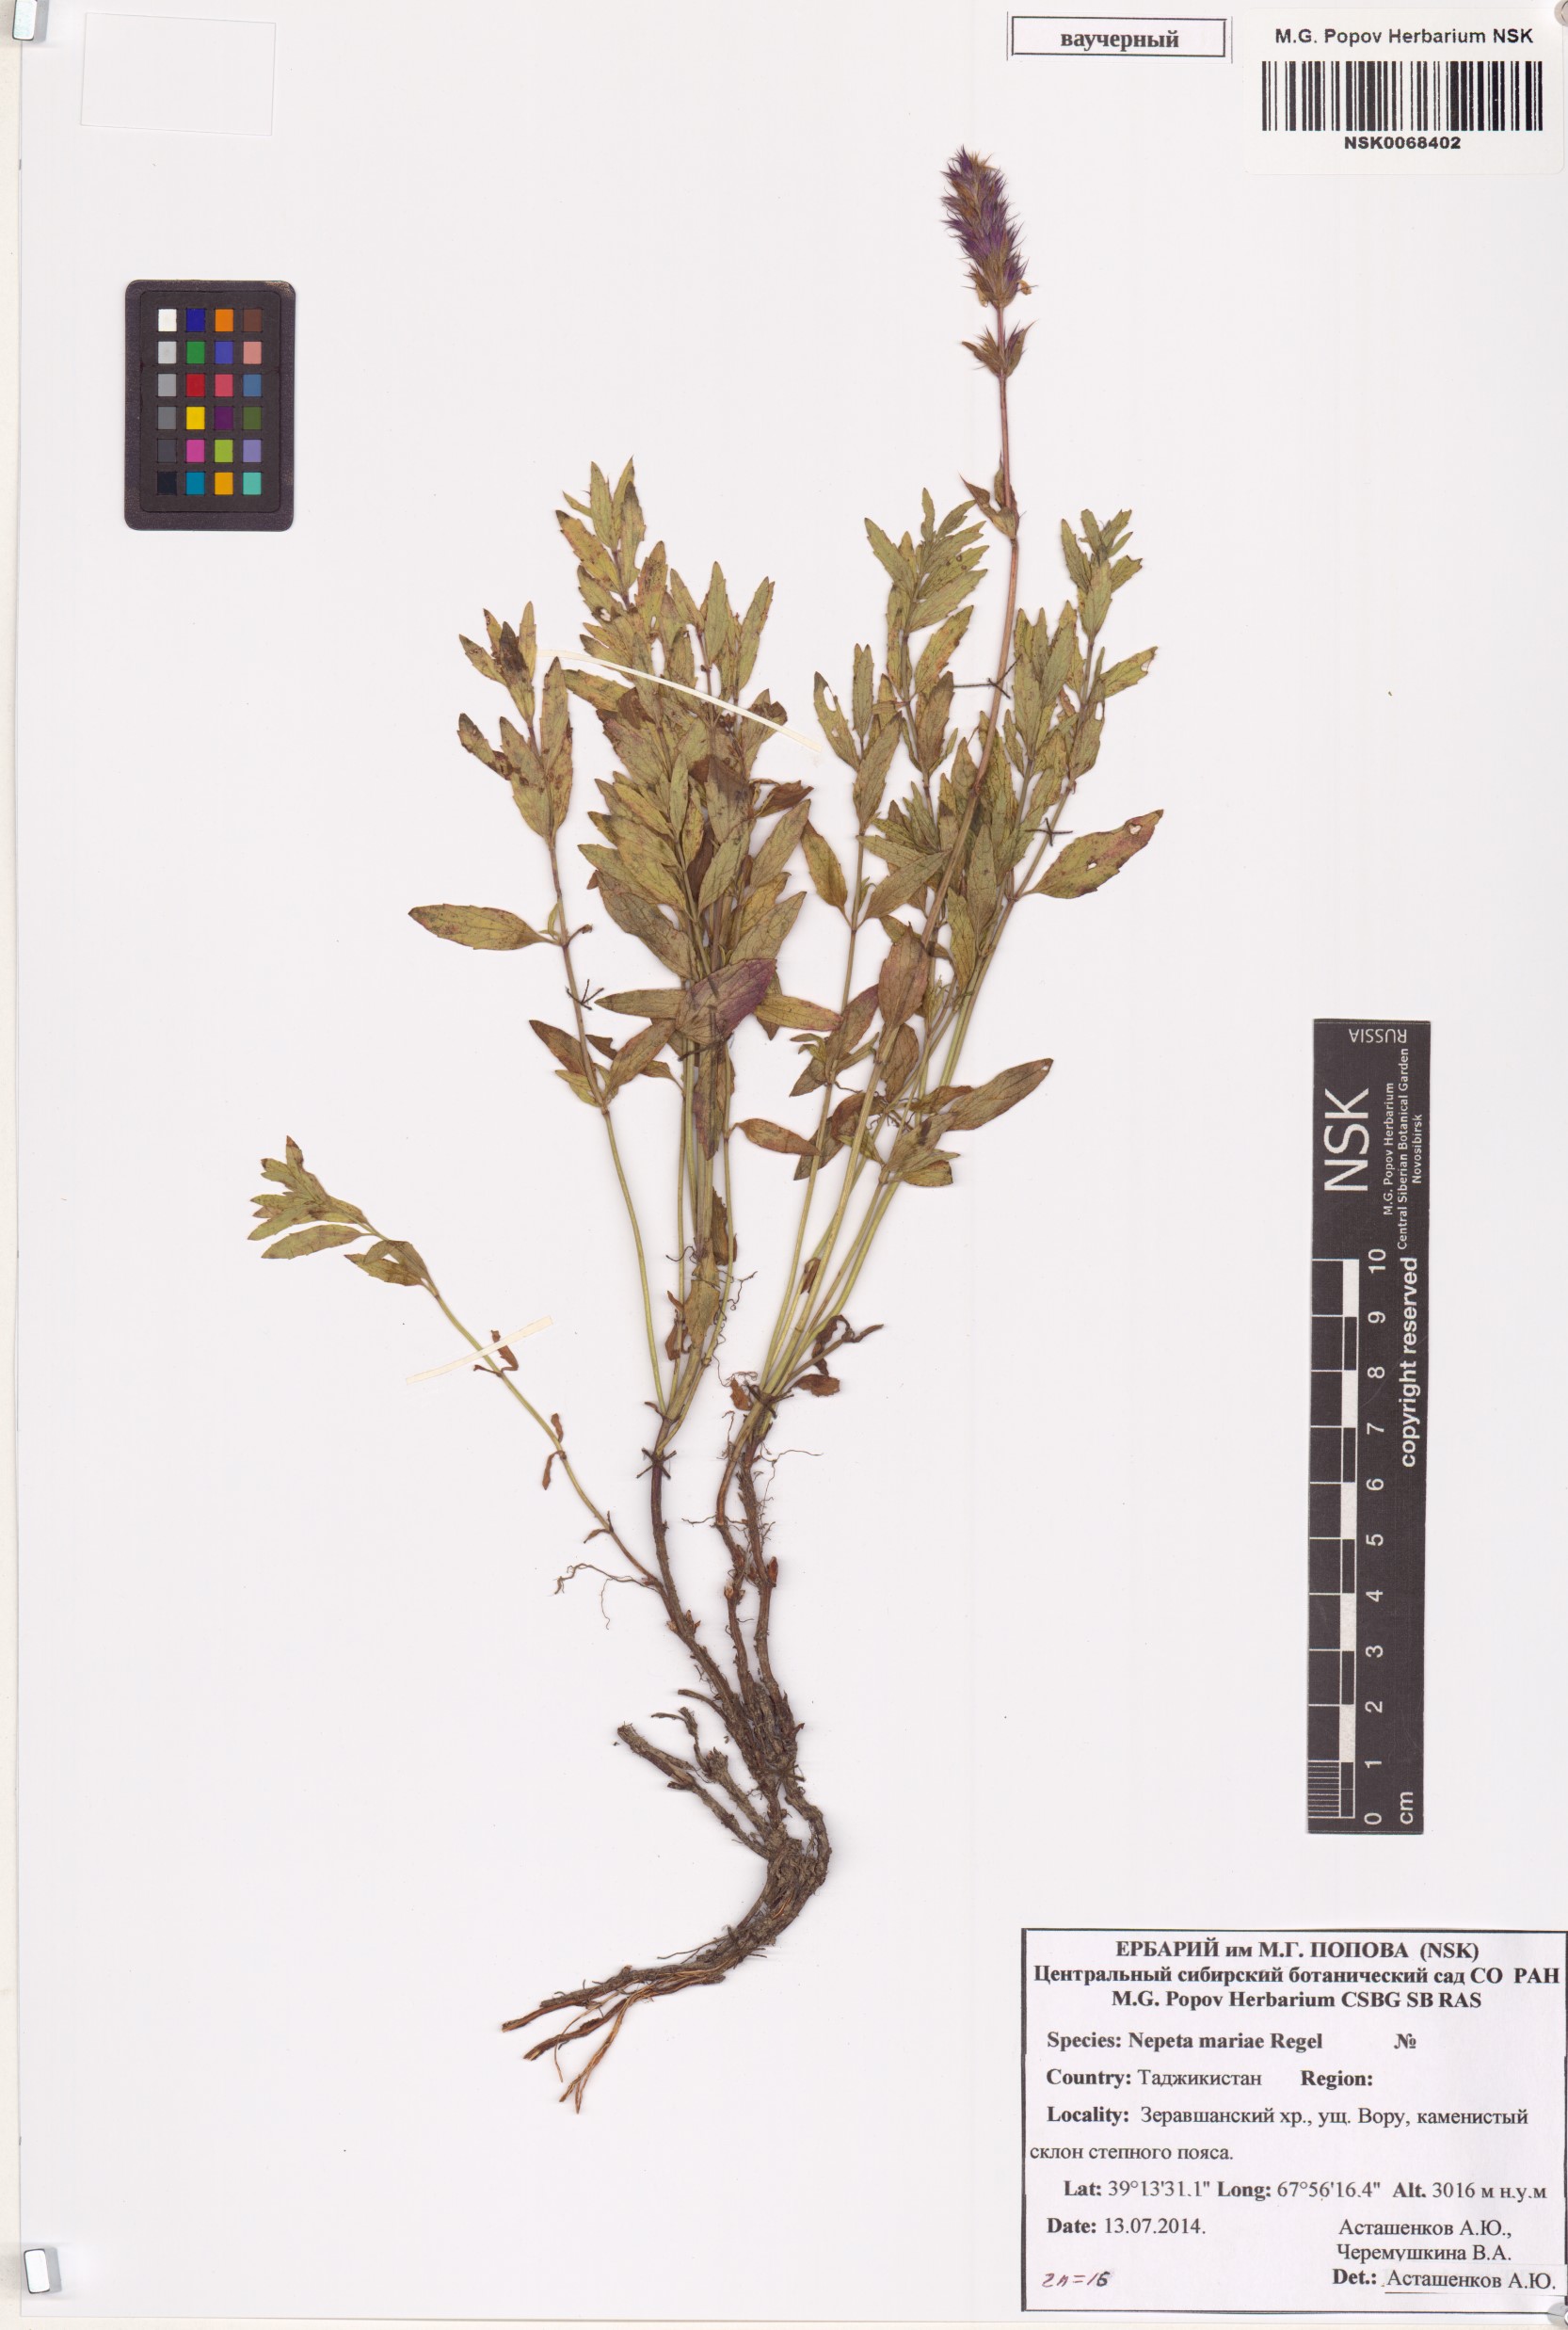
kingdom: Plantae
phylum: Tracheophyta
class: Magnoliopsida
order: Lamiales
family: Lamiaceae
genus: Nepeta
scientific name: Nepeta mariae
